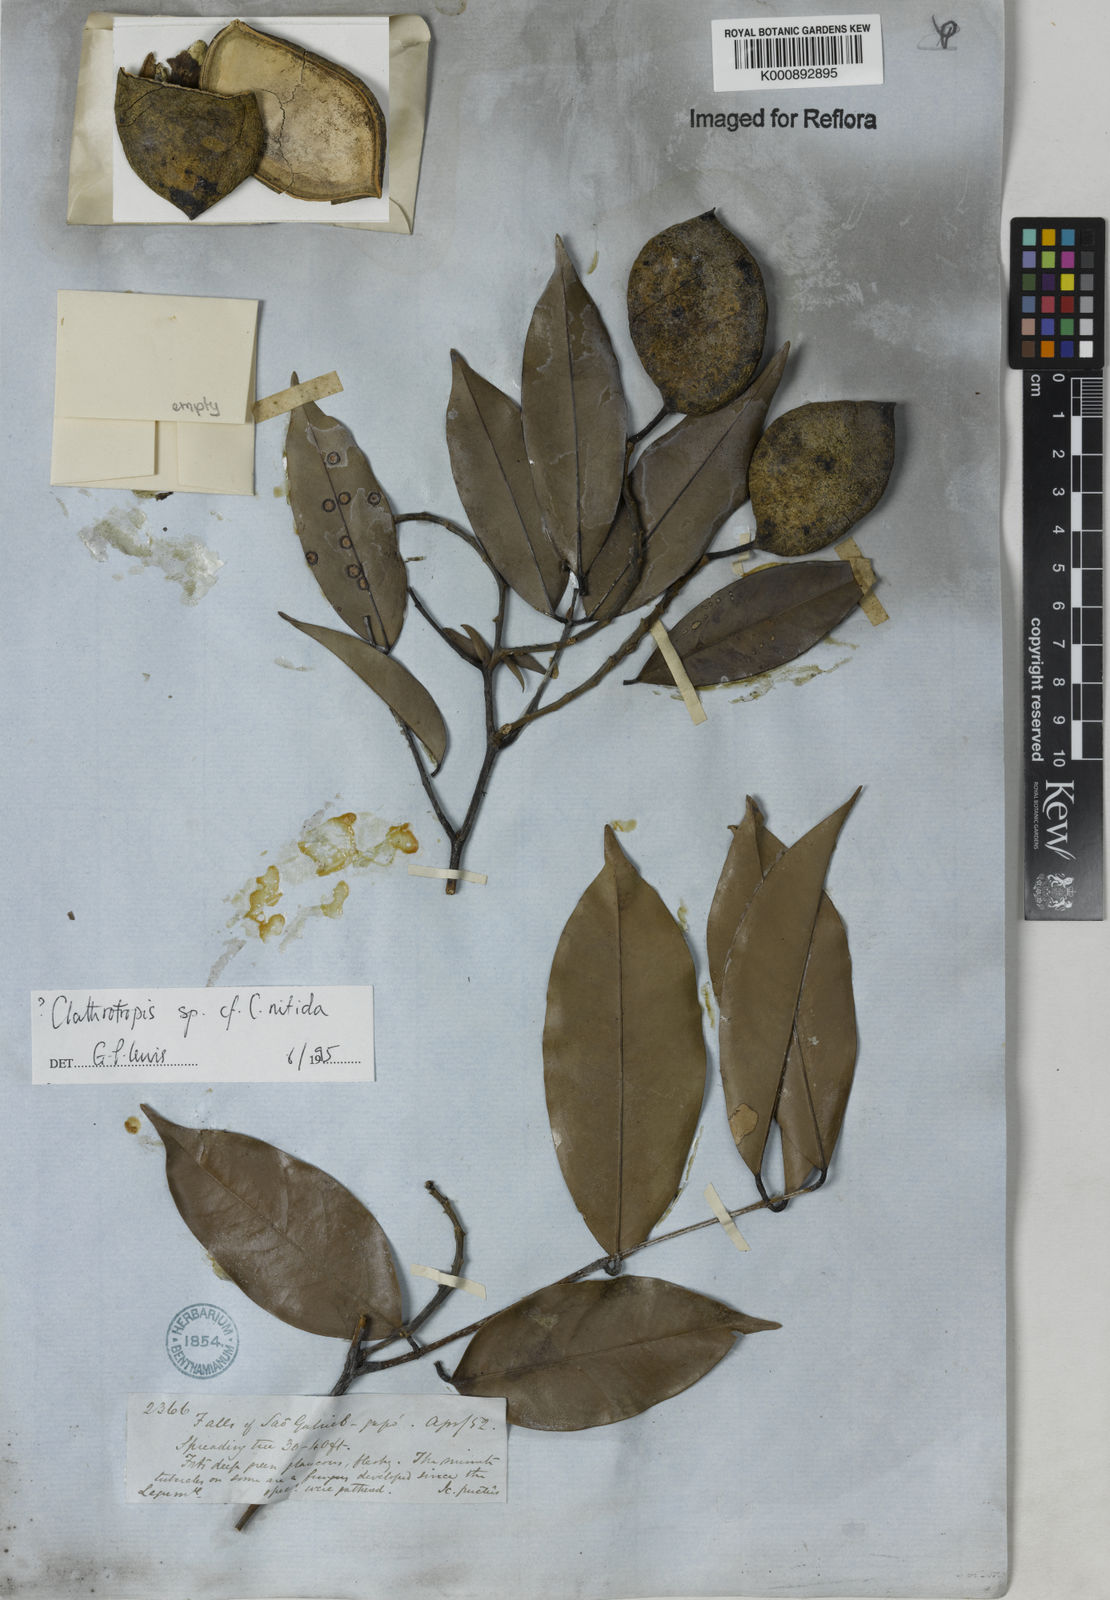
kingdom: Plantae
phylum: Tracheophyta
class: Magnoliopsida
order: Fabales
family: Fabaceae
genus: Clathrotropis
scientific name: Clathrotropis
